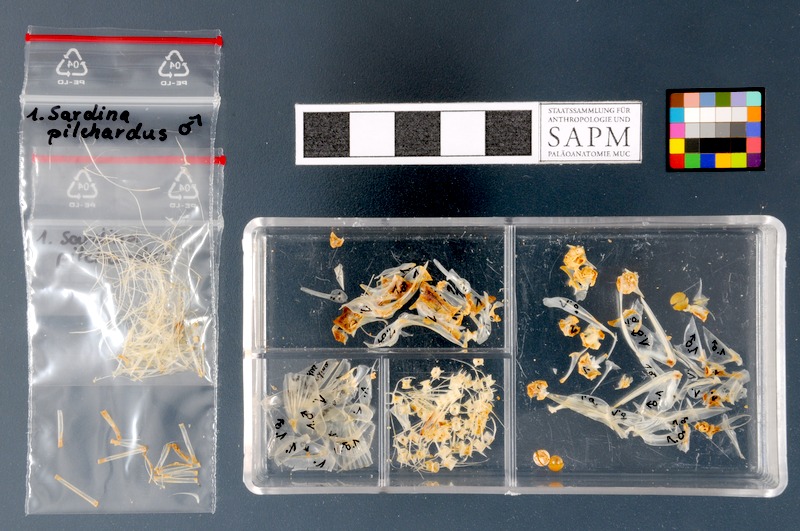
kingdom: Animalia
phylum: Chordata
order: Clupeiformes
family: Clupeidae
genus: Sardina
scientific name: Sardina pilchardus
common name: Pilchard
